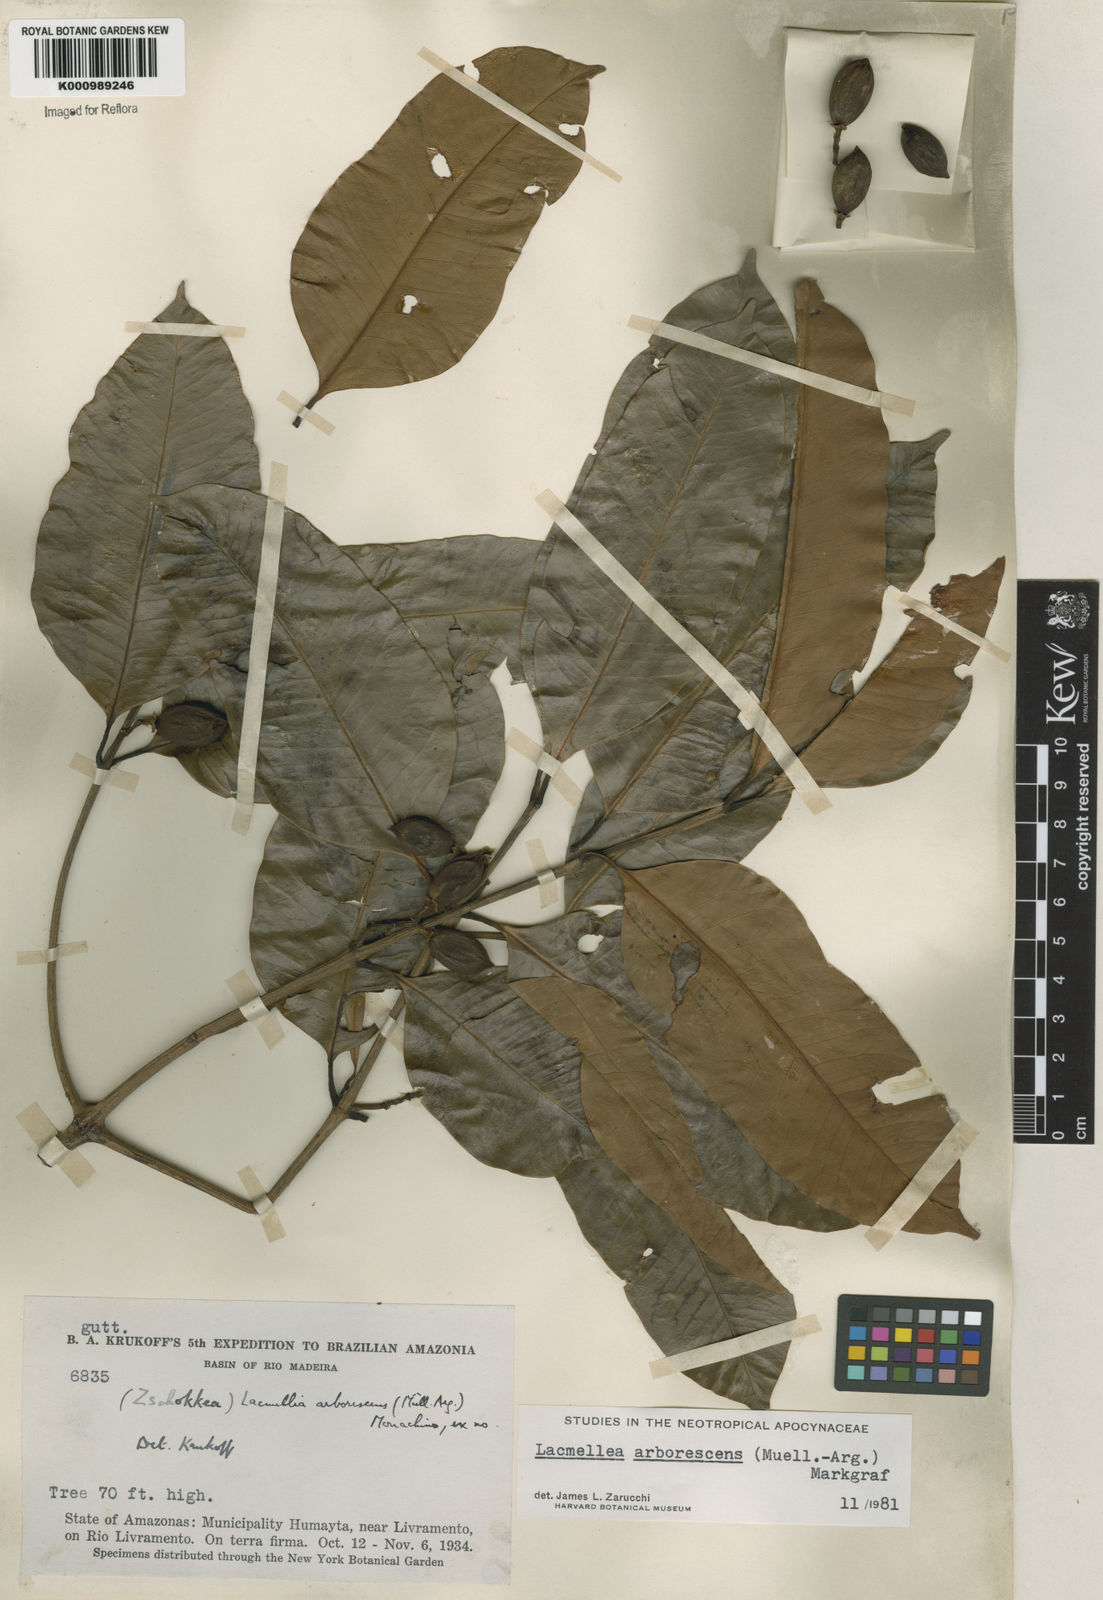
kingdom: Plantae
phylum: Tracheophyta
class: Magnoliopsida
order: Gentianales
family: Apocynaceae
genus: Lacmellea
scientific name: Lacmellea
